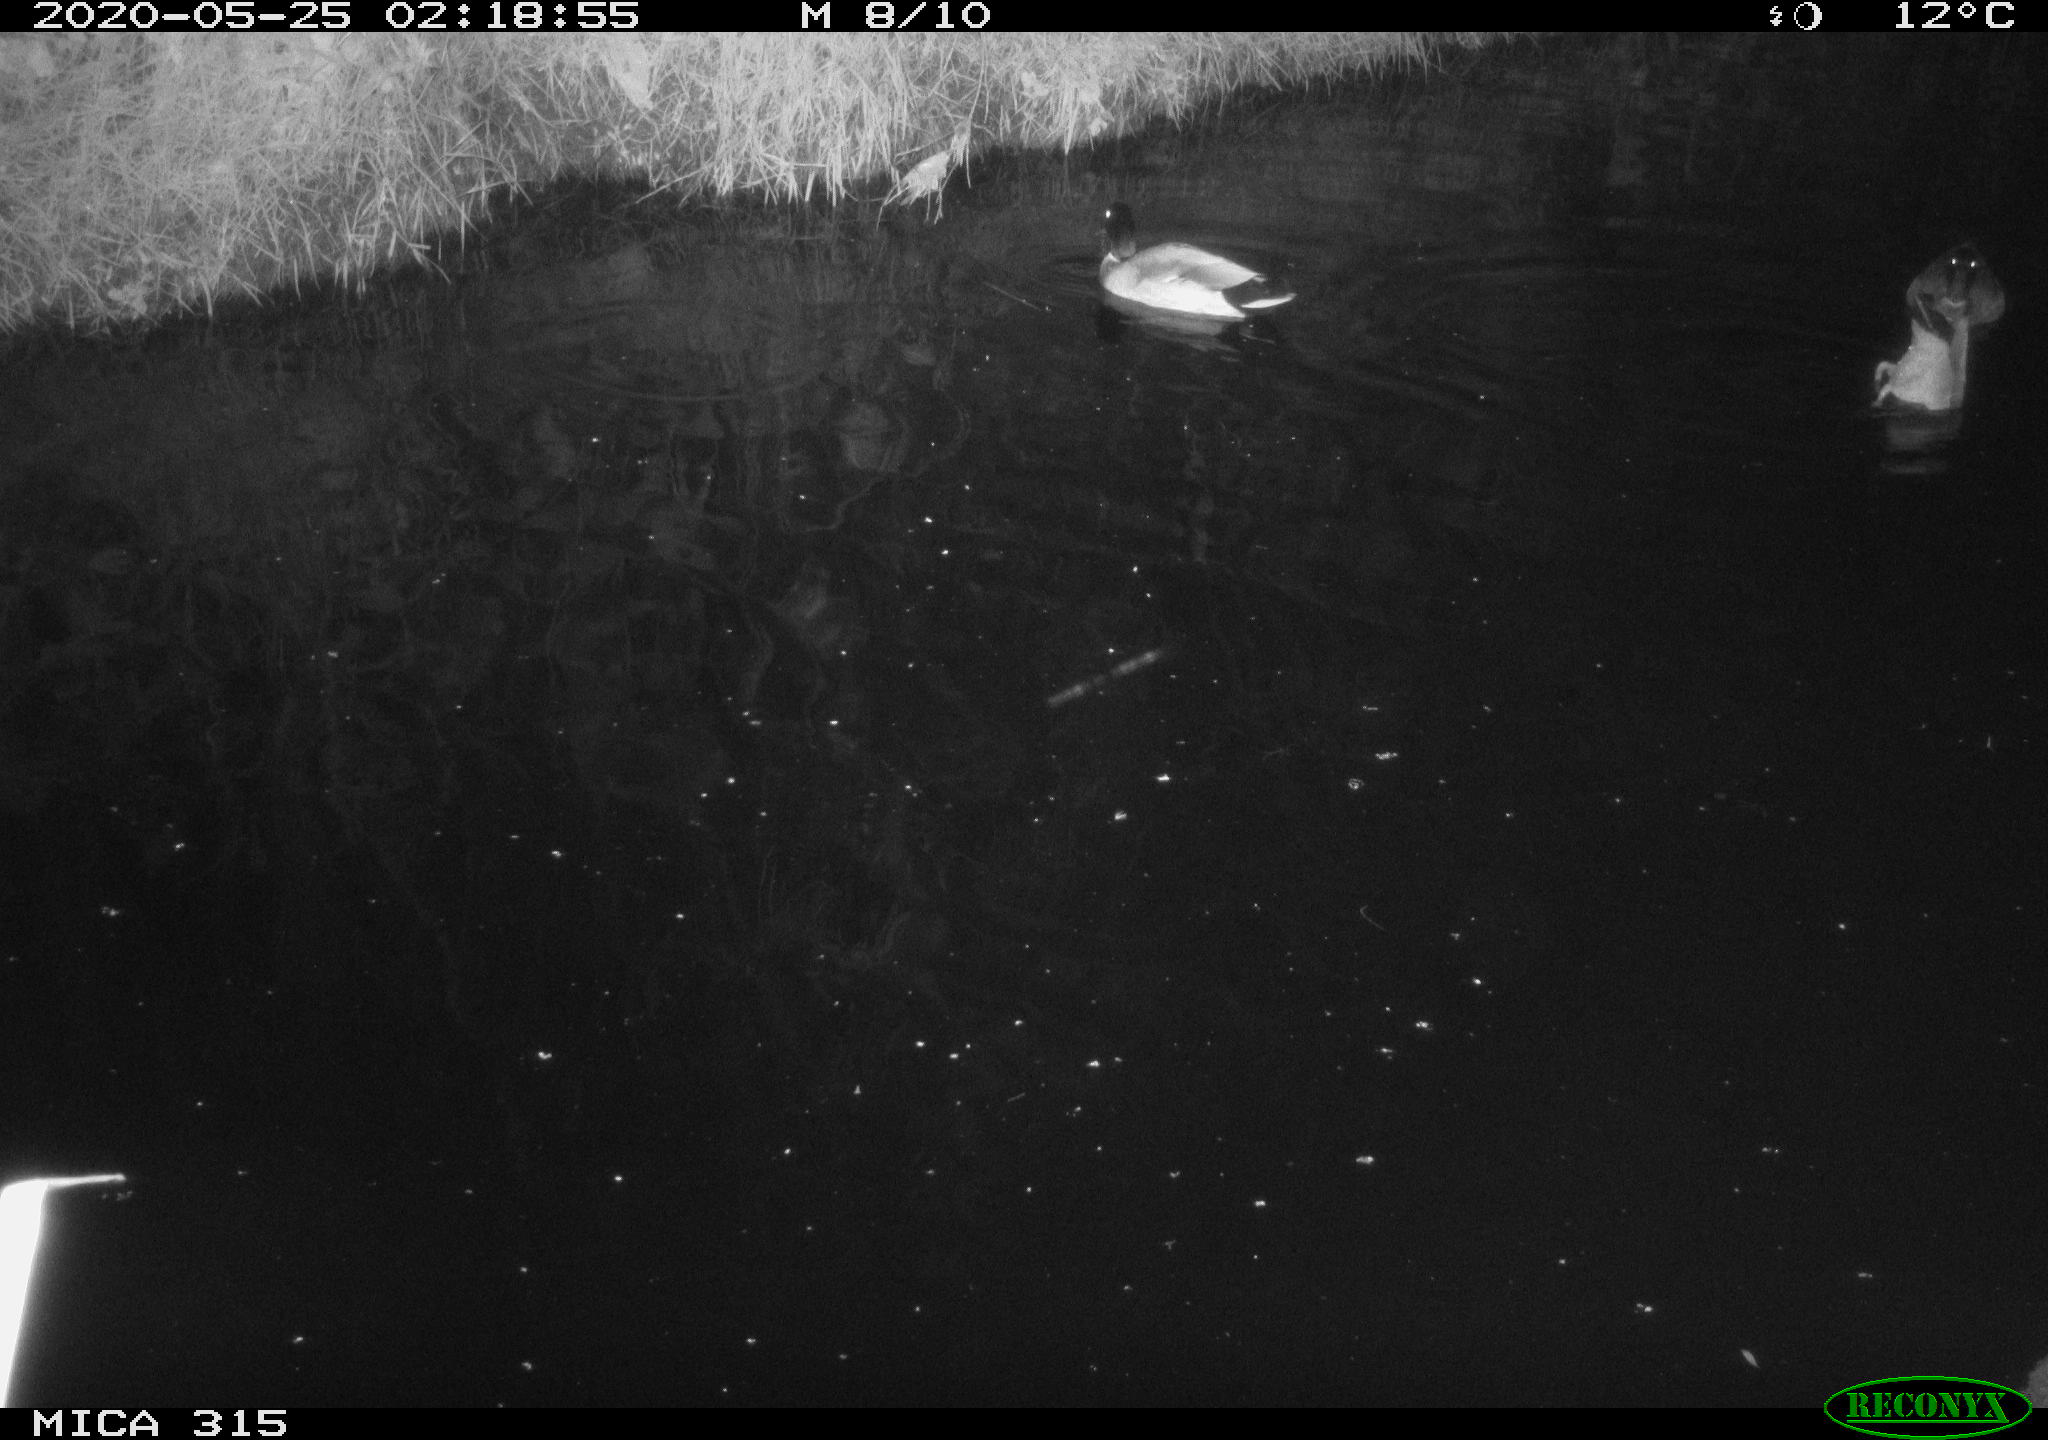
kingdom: Animalia
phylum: Chordata
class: Aves
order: Anseriformes
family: Anatidae
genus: Anas
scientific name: Anas platyrhynchos
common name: Mallard
